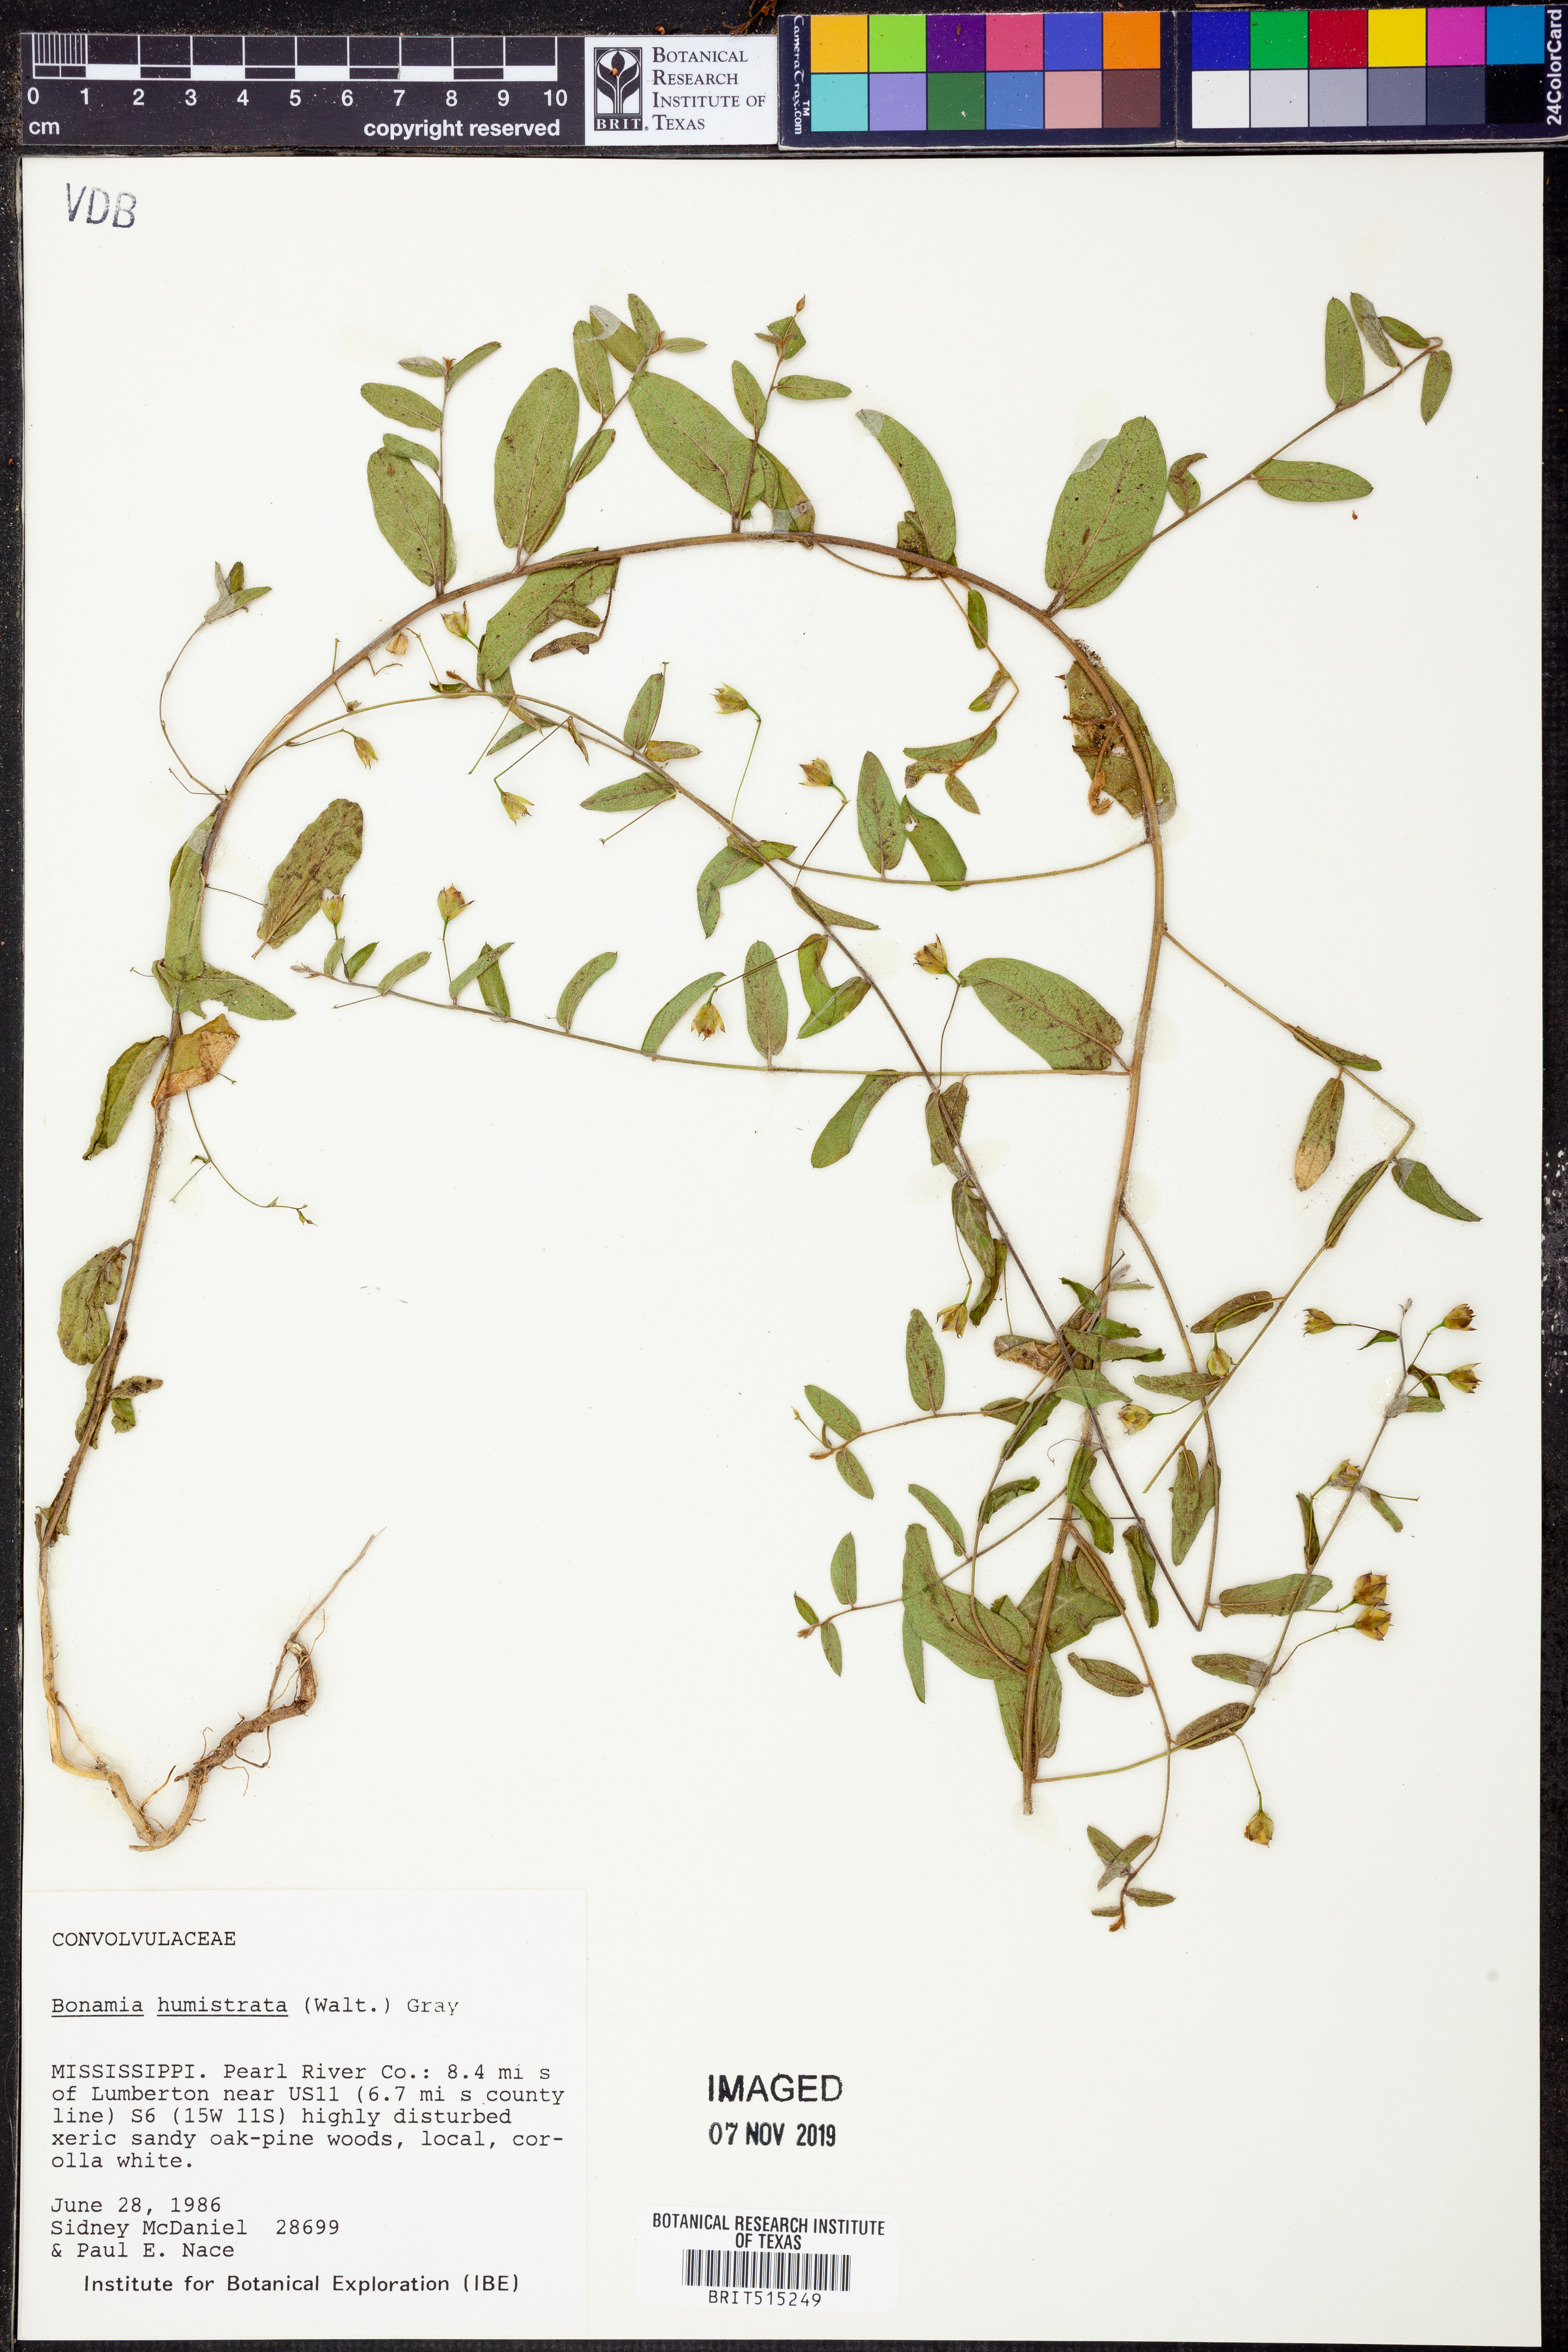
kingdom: Plantae
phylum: Tracheophyta
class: Magnoliopsida
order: Solanales
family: Convolvulaceae
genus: Stylisma
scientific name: Stylisma humistrata
